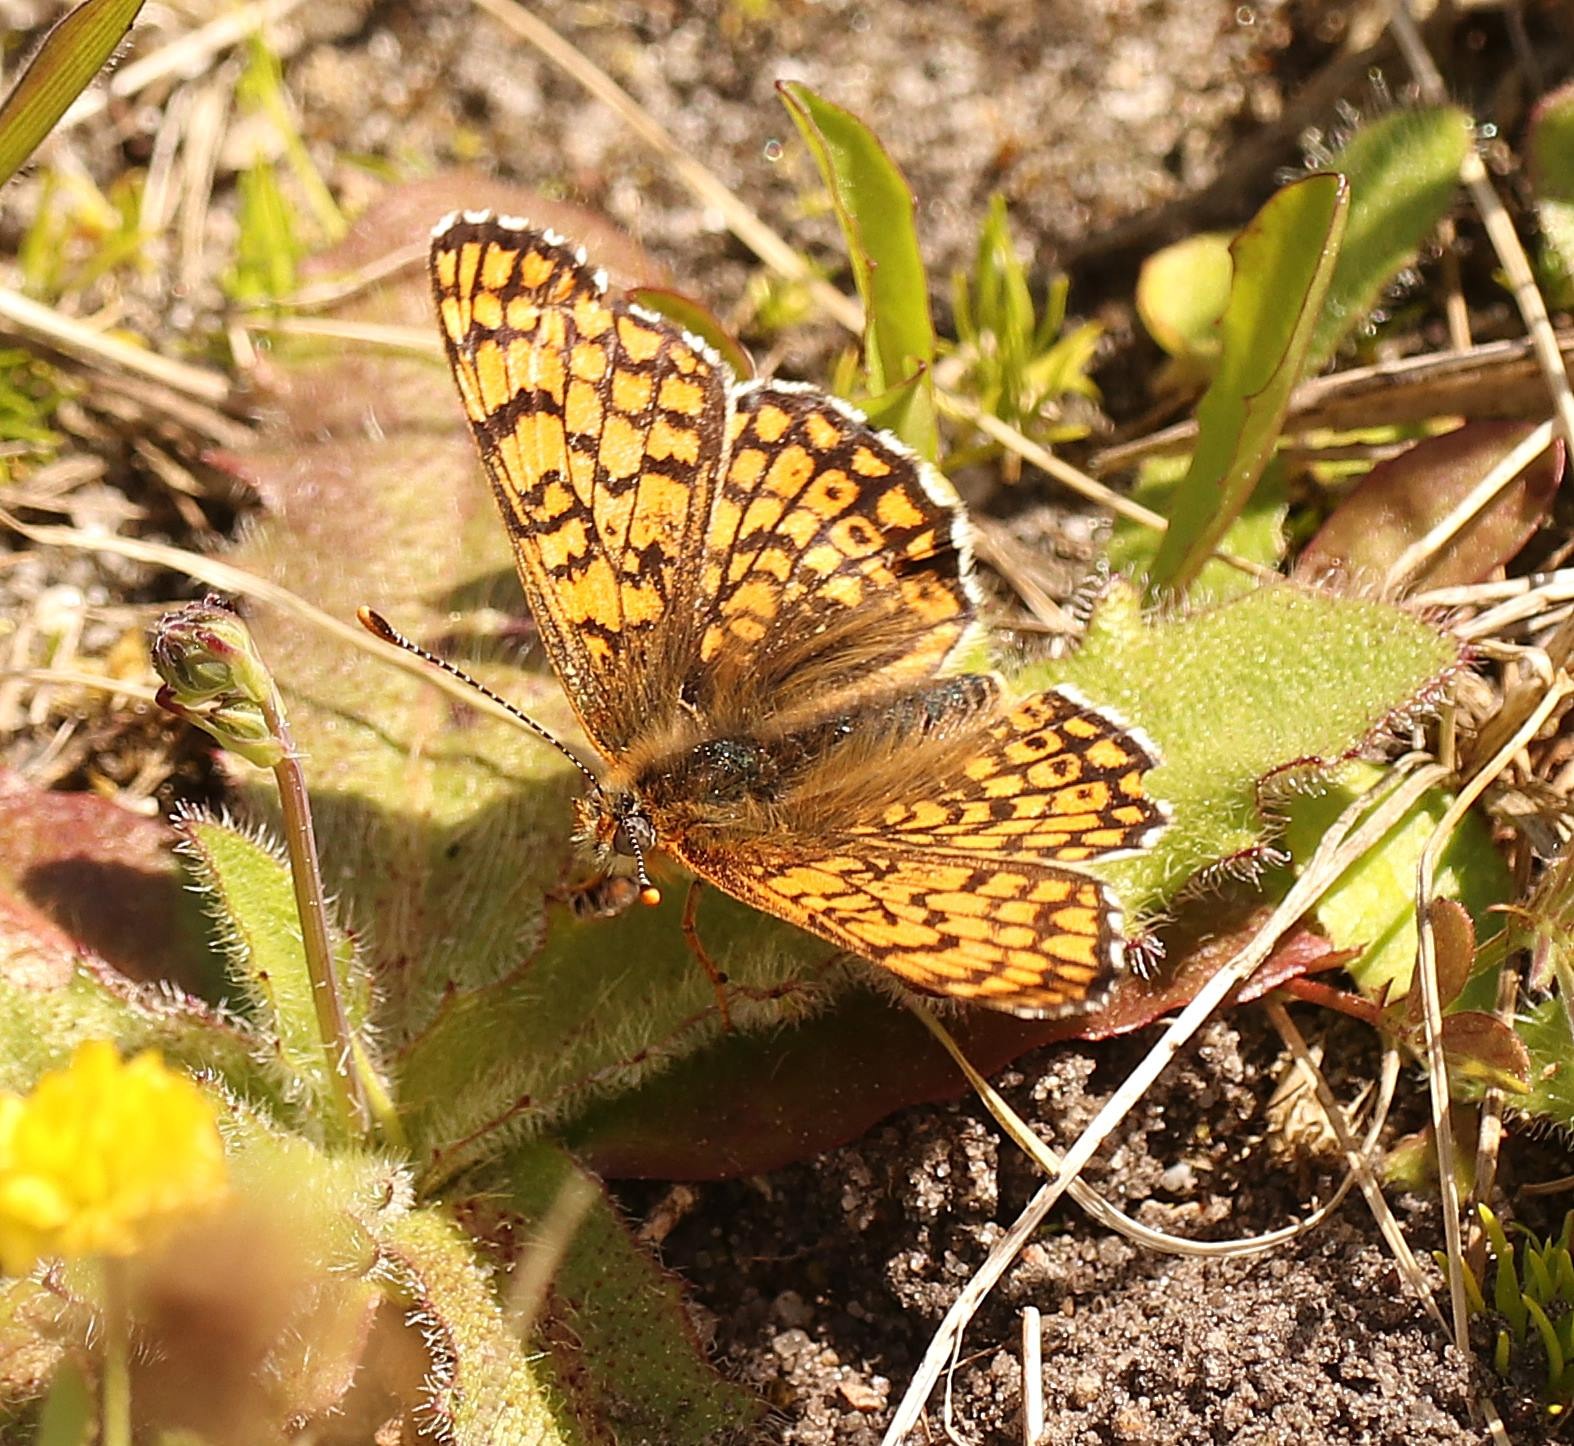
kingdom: Animalia
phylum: Arthropoda
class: Insecta
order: Lepidoptera
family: Nymphalidae
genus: Melitaea
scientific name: Melitaea cinxia
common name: Okkergul pletvinge
